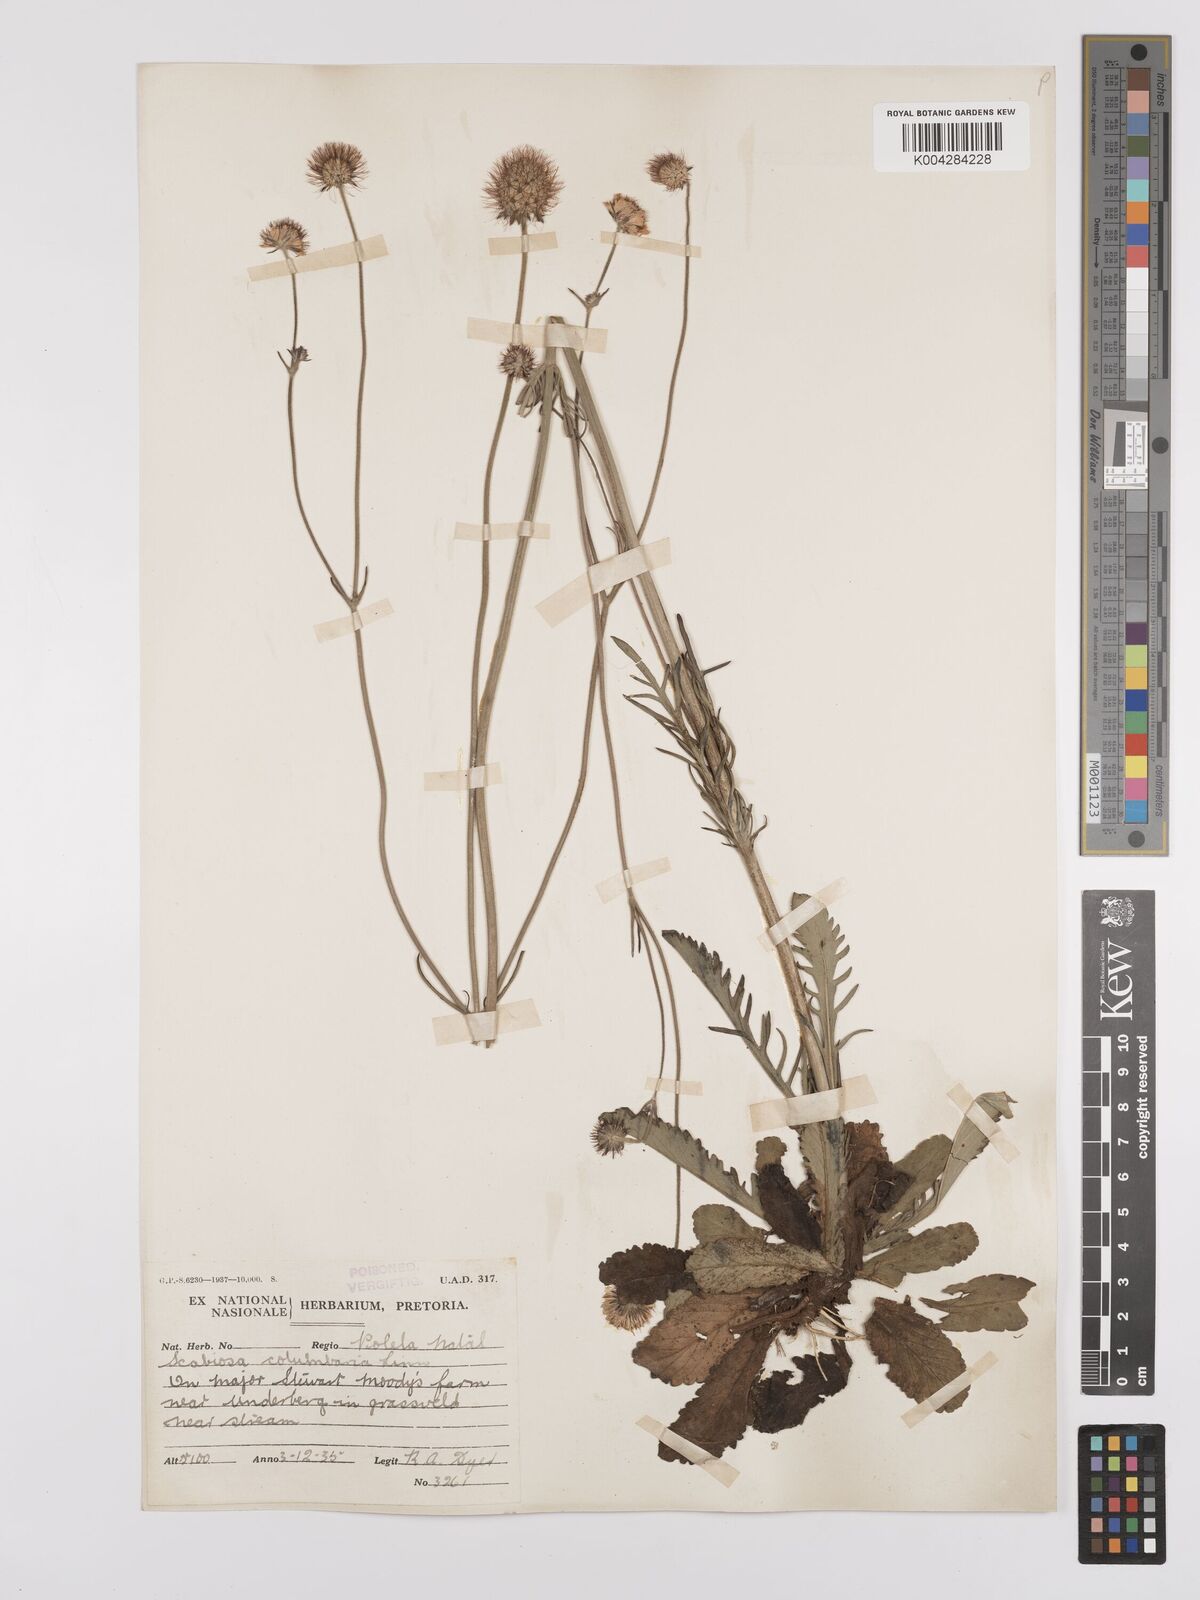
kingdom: Plantae
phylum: Tracheophyta
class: Magnoliopsida
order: Dipsacales
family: Caprifoliaceae
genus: Scabiosa
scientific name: Scabiosa columbaria
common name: Small scabious
